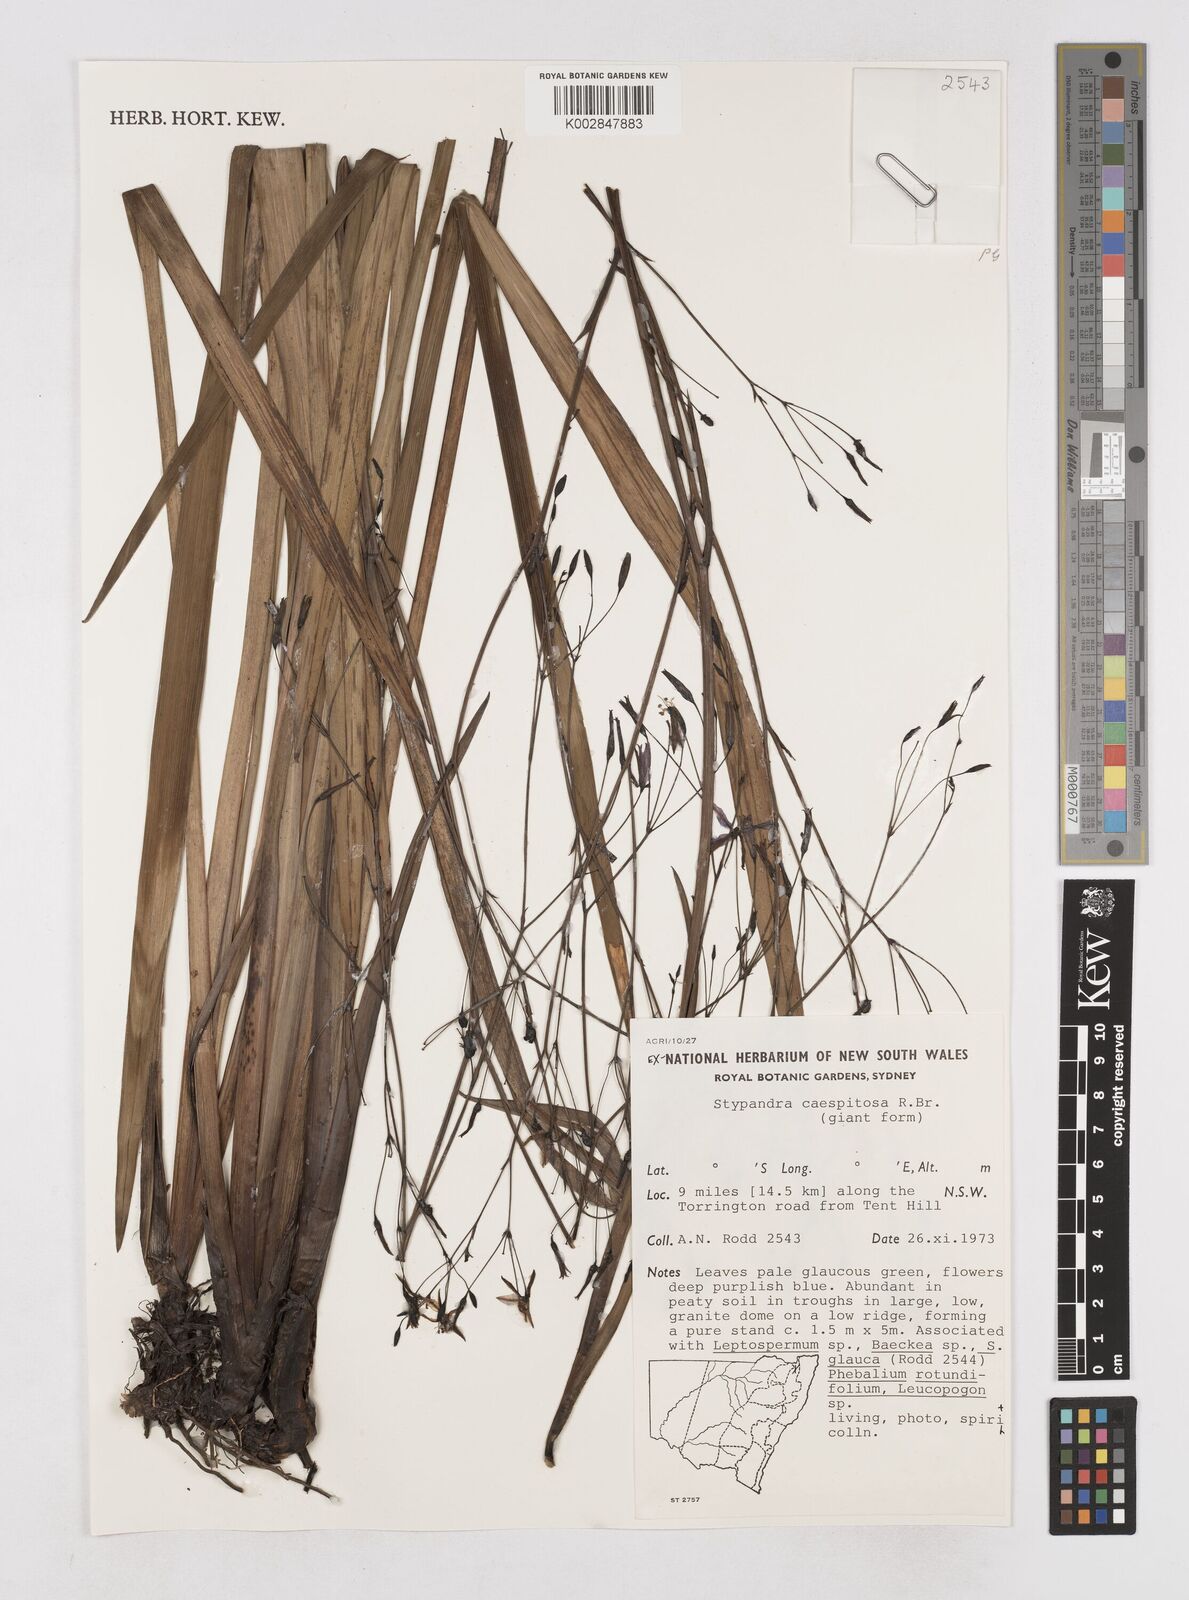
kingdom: Plantae
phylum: Tracheophyta
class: Liliopsida
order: Asparagales
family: Asphodelaceae
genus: Thelionema
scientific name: Thelionema caespitosum
